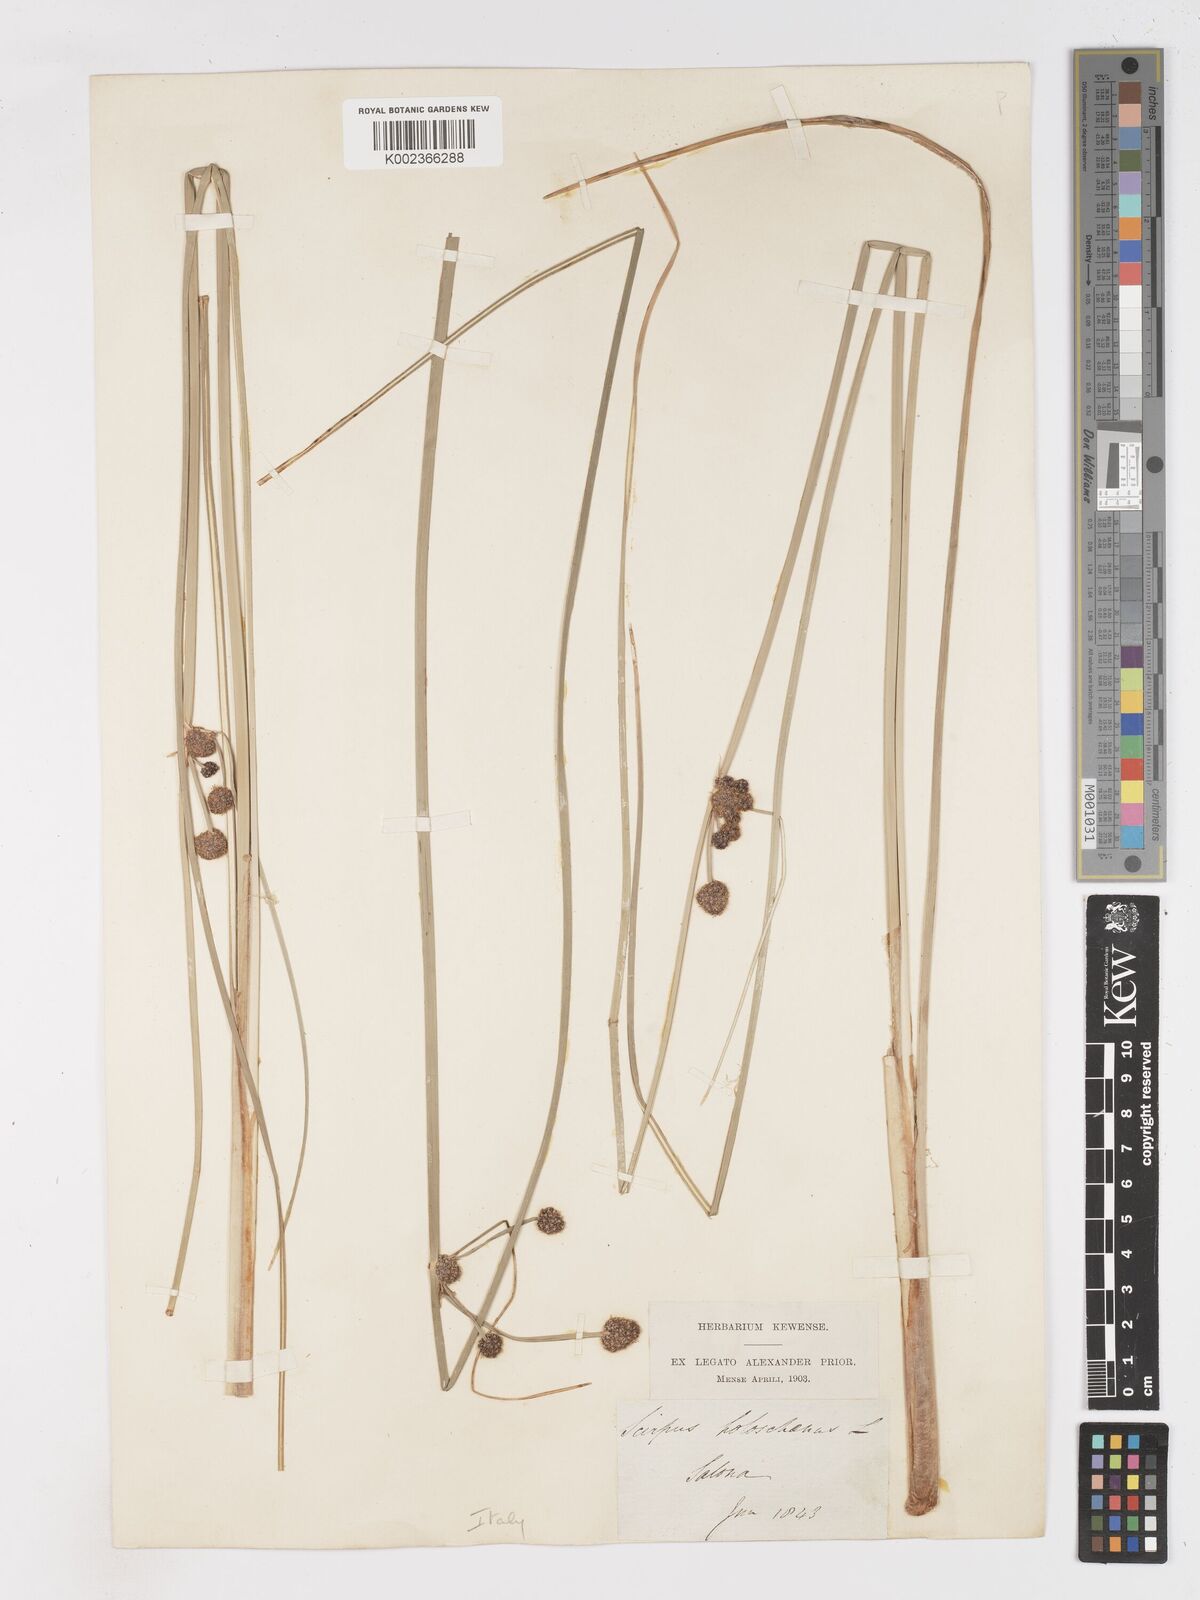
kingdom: Plantae
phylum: Tracheophyta
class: Liliopsida
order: Poales
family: Cyperaceae
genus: Scirpoides
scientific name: Scirpoides holoschoenus
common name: Round-headed club-rush
